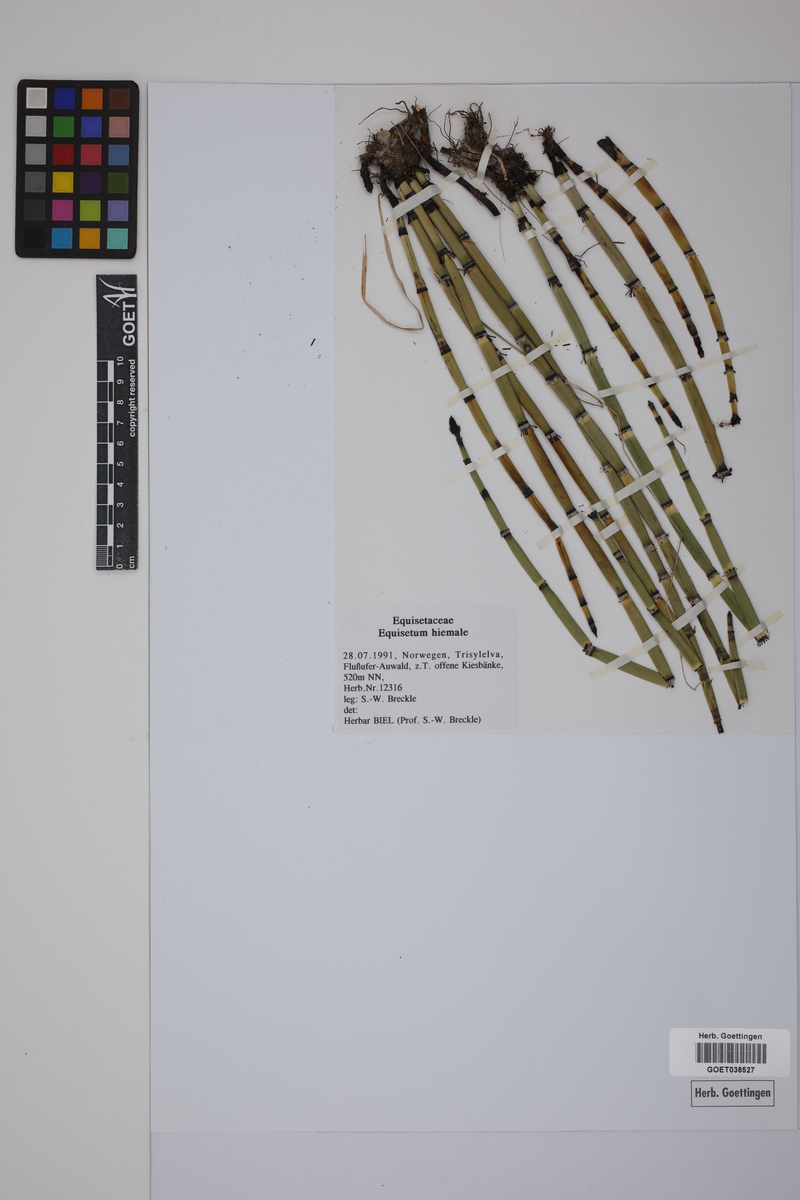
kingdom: Plantae
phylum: Tracheophyta
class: Polypodiopsida
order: Equisetales
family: Equisetaceae
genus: Equisetum
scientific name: Equisetum hyemale
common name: Rough horsetail
